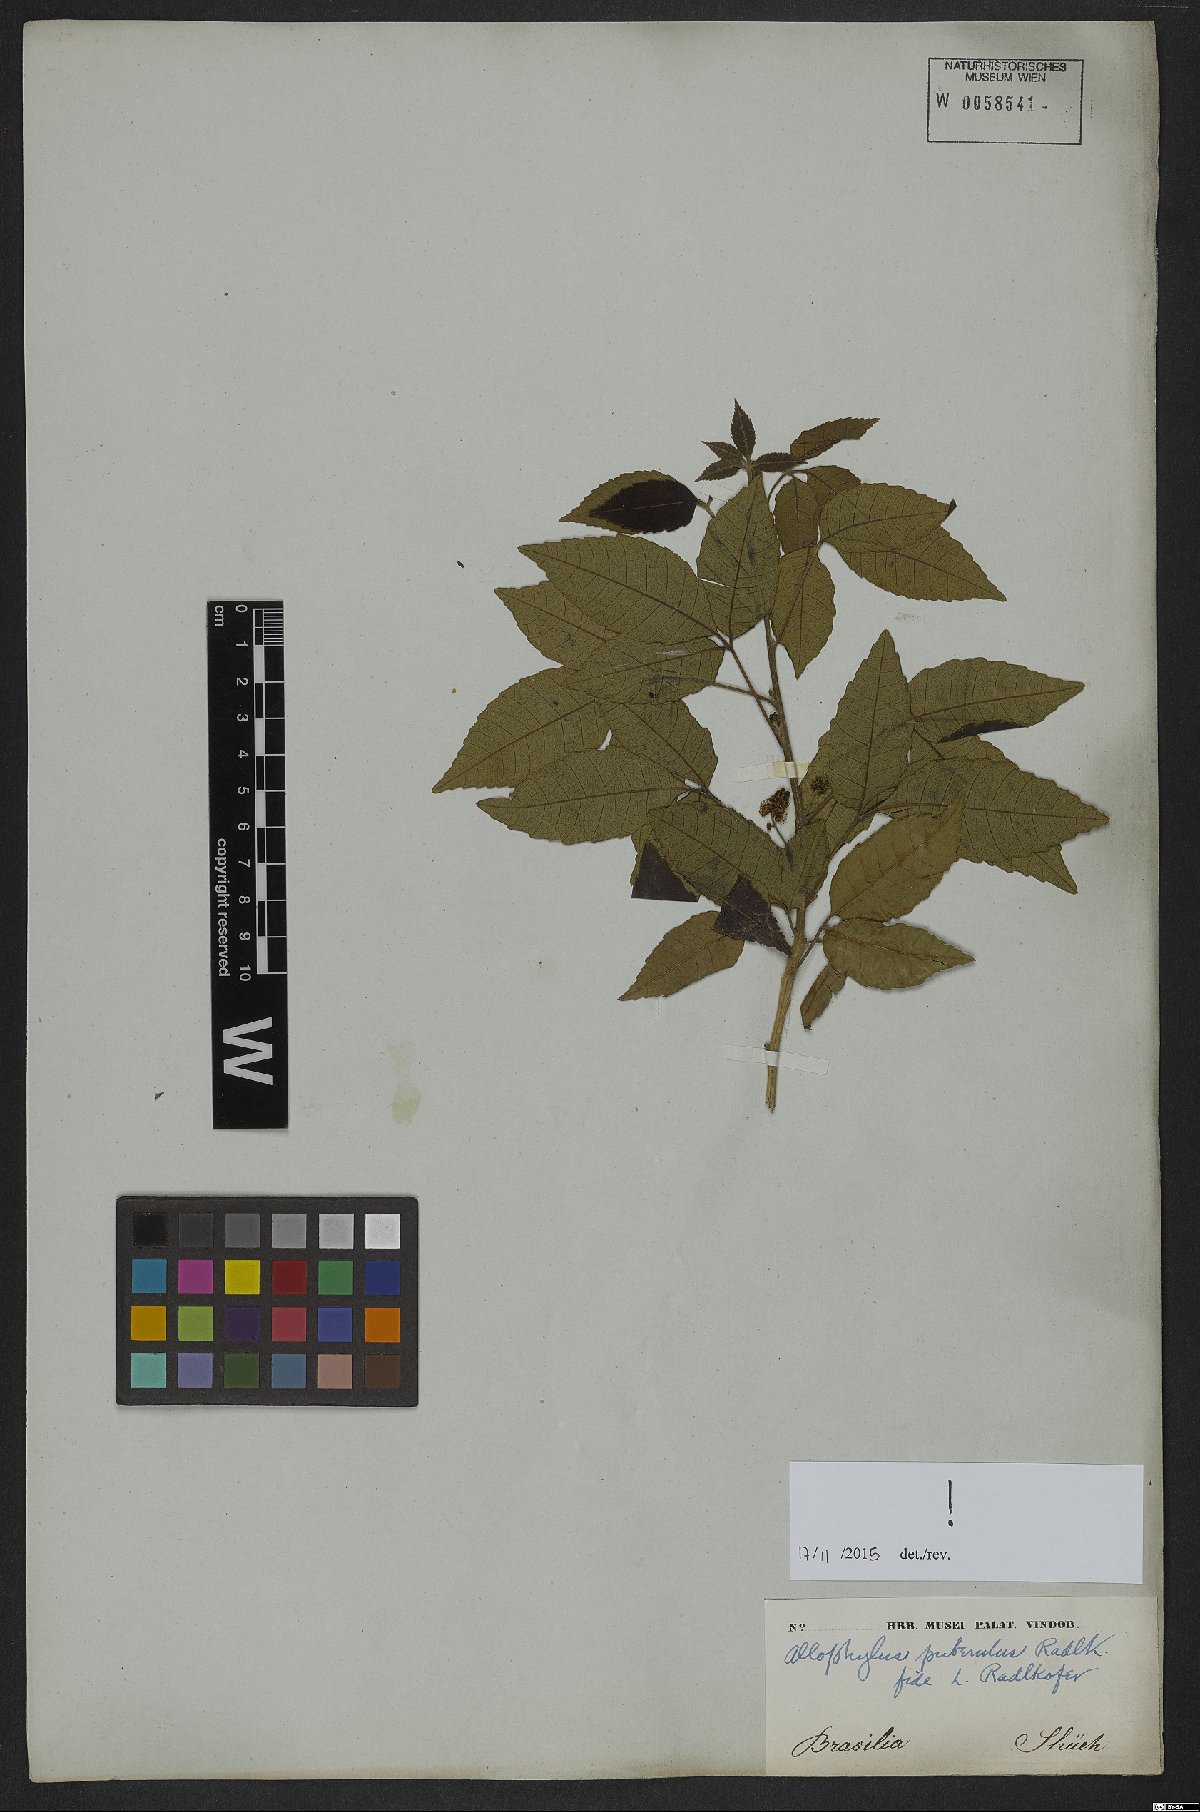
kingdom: Plantae
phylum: Tracheophyta
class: Magnoliopsida
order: Sapindales
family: Sapindaceae
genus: Allophylus
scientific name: Allophylus puberulus
